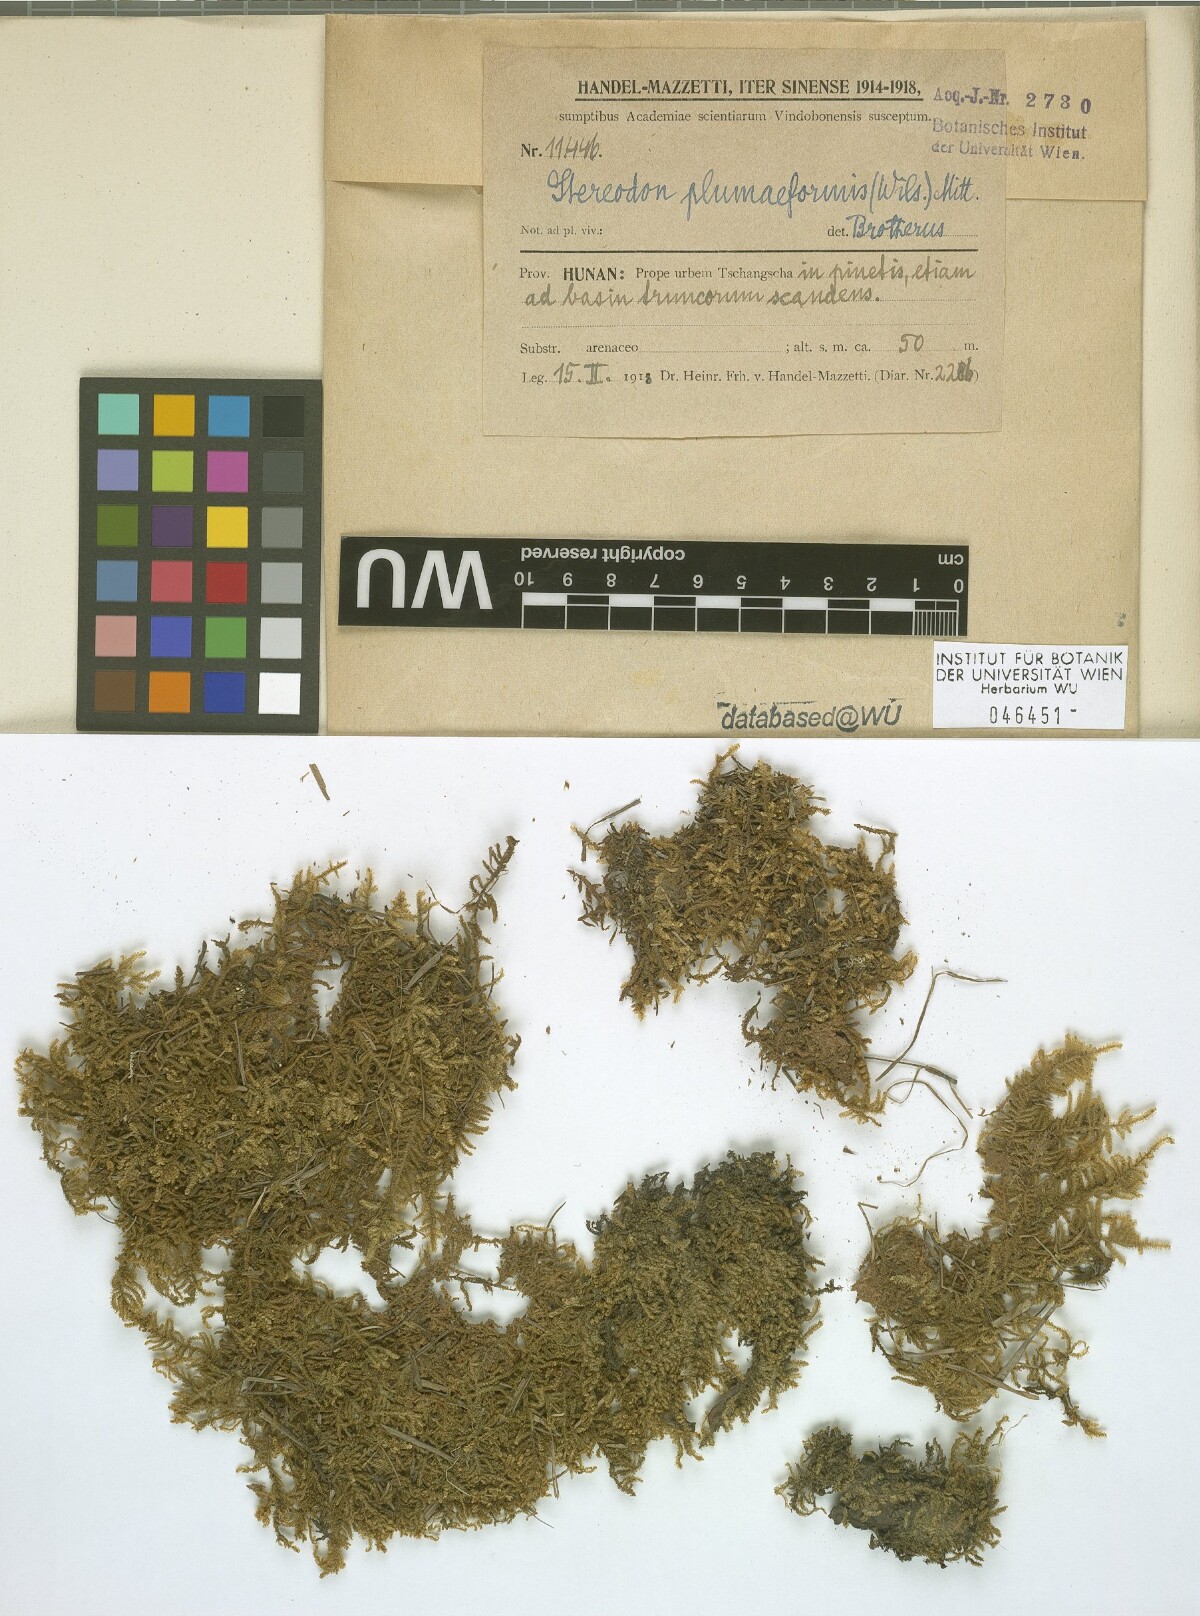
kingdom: Plantae
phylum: Bryophyta
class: Bryopsida
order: Hypnales
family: Hypnaceae
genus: Hypnum
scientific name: Hypnum plumaeforme
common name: Cypress-leaved plaitmoss
